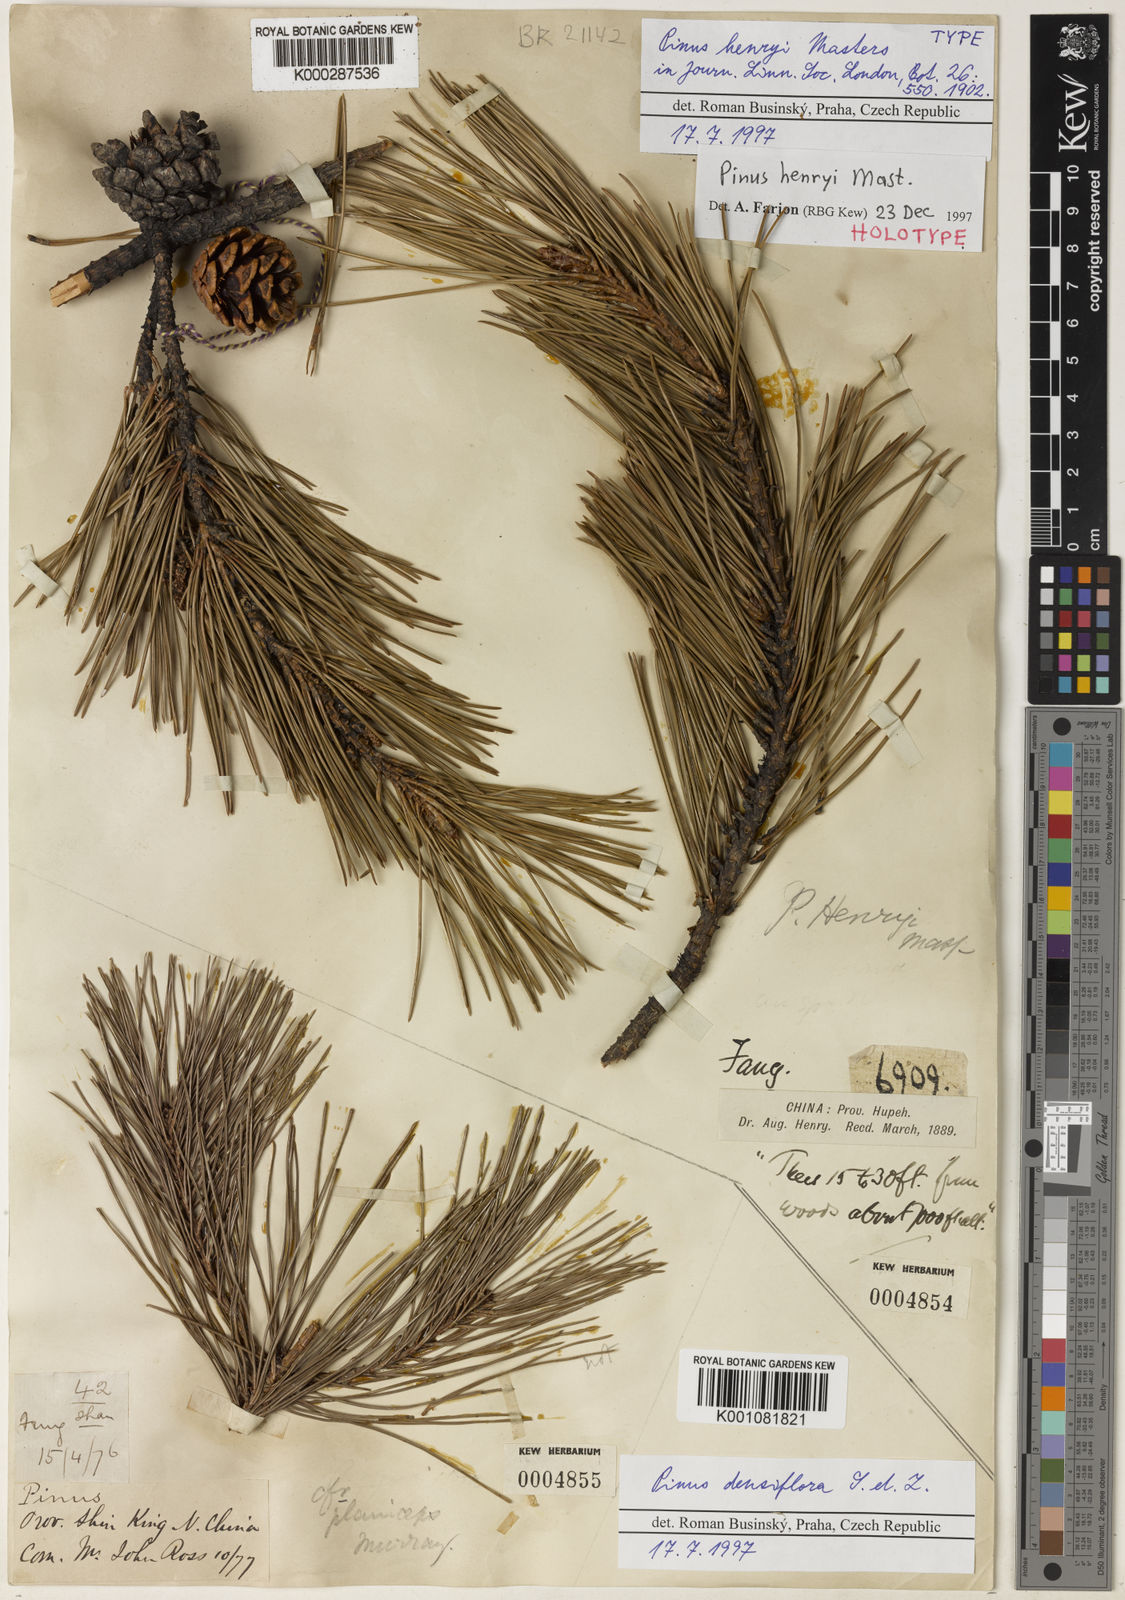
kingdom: Plantae
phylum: Tracheophyta
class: Pinopsida
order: Pinales
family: Pinaceae
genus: Pinus
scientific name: Pinus henryi
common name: Henry's pine
